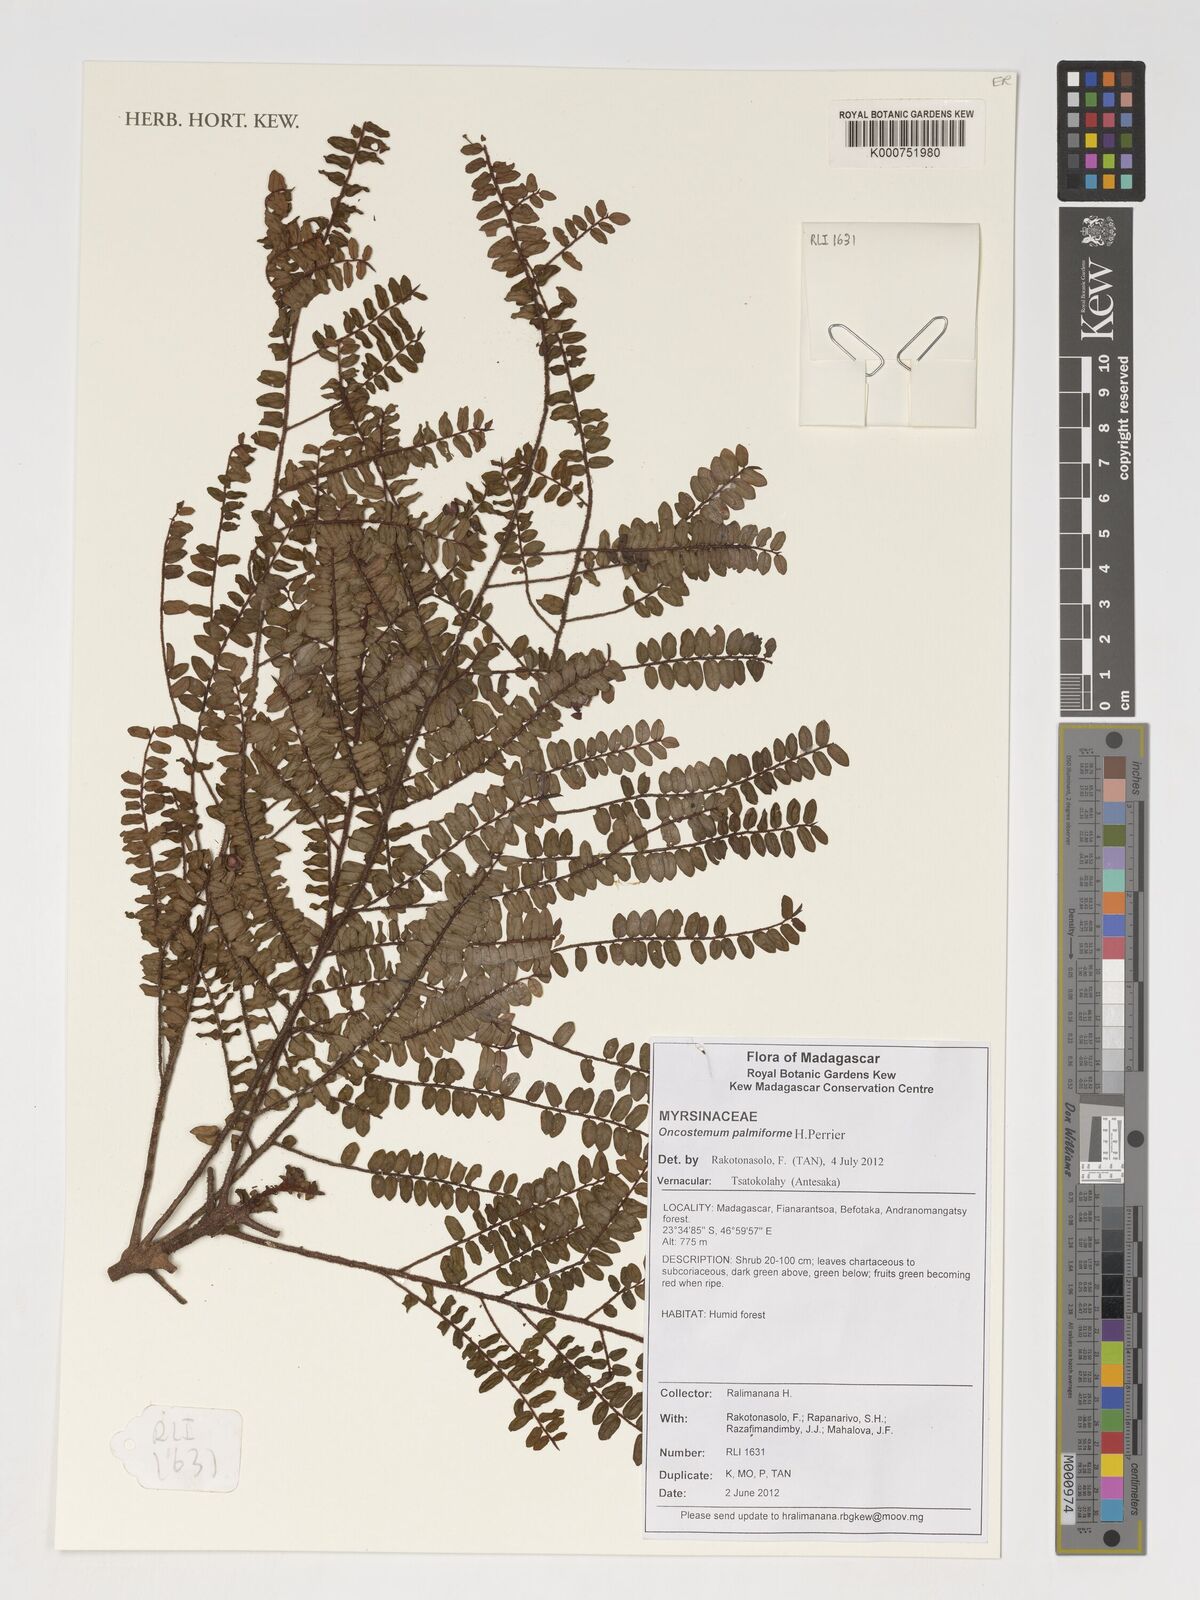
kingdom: Plantae
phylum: Tracheophyta
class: Magnoliopsida
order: Ericales
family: Primulaceae
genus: Oncostemum
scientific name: Oncostemum palmiforme
